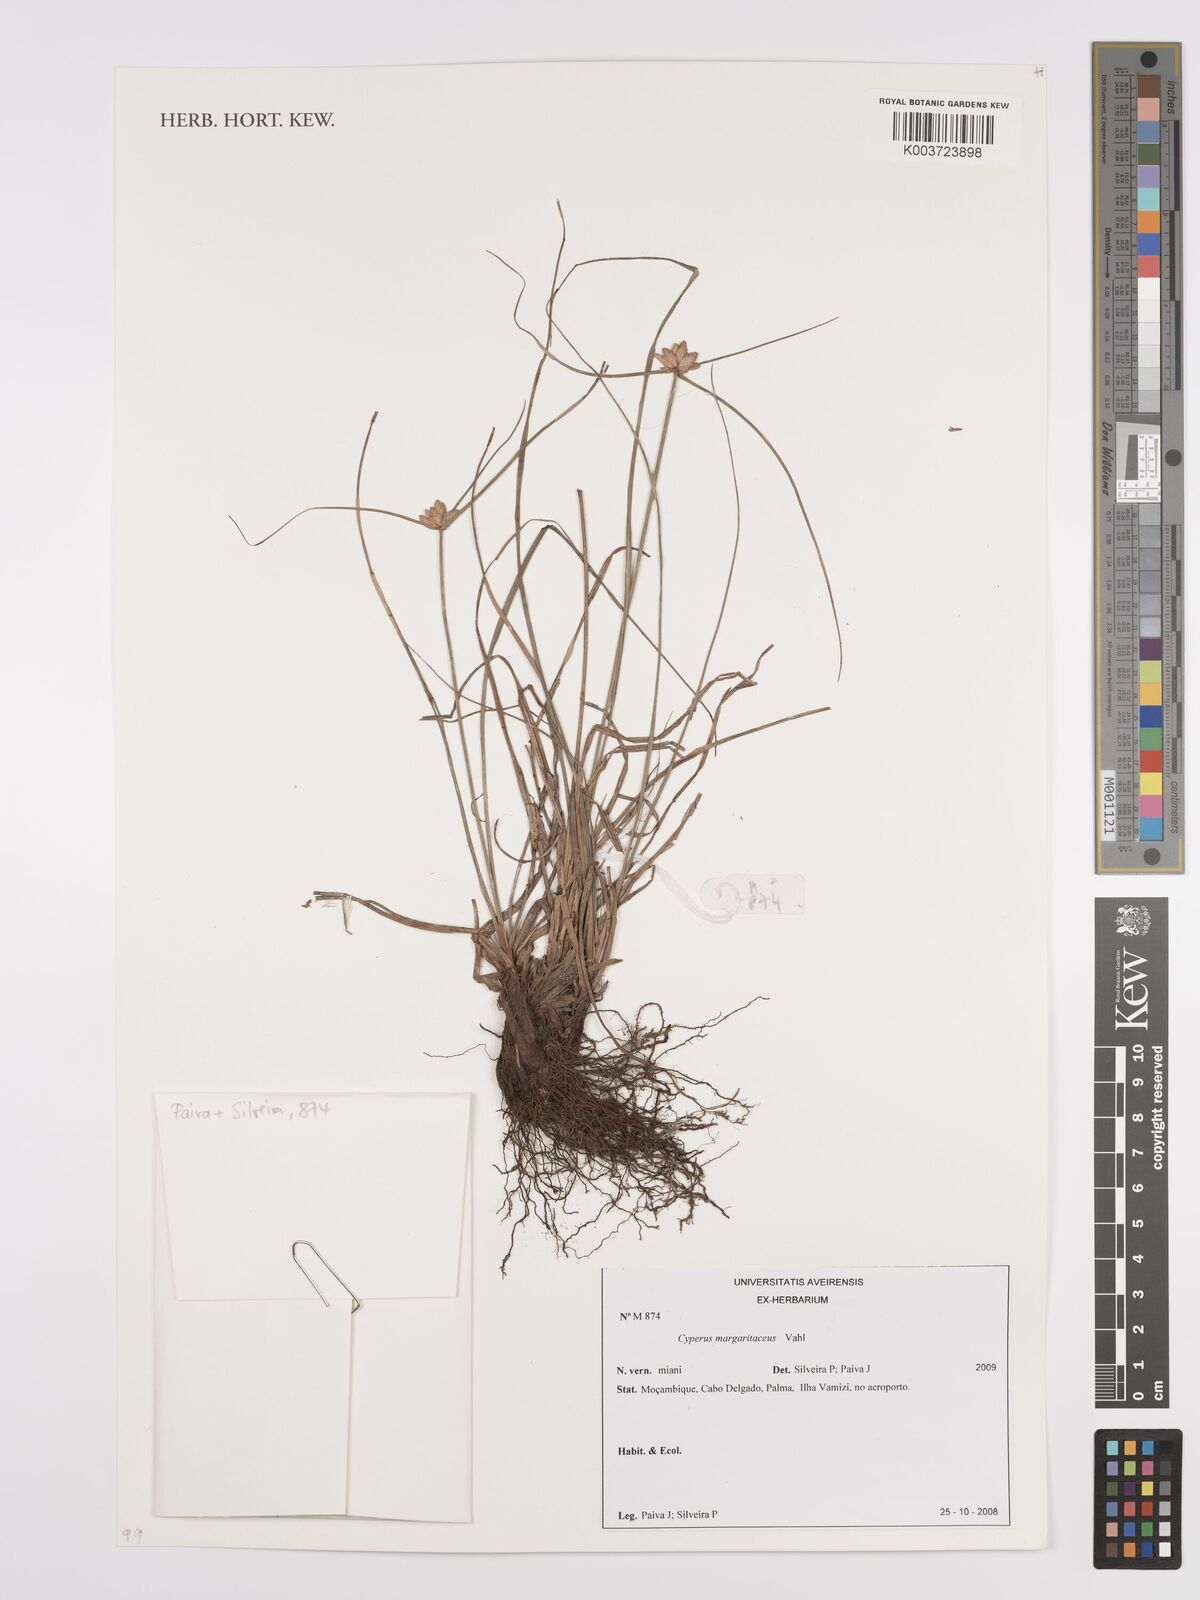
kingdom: Plantae
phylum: Tracheophyta
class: Liliopsida
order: Poales
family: Cyperaceae
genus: Cyperus
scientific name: Cyperus margaritaceus
